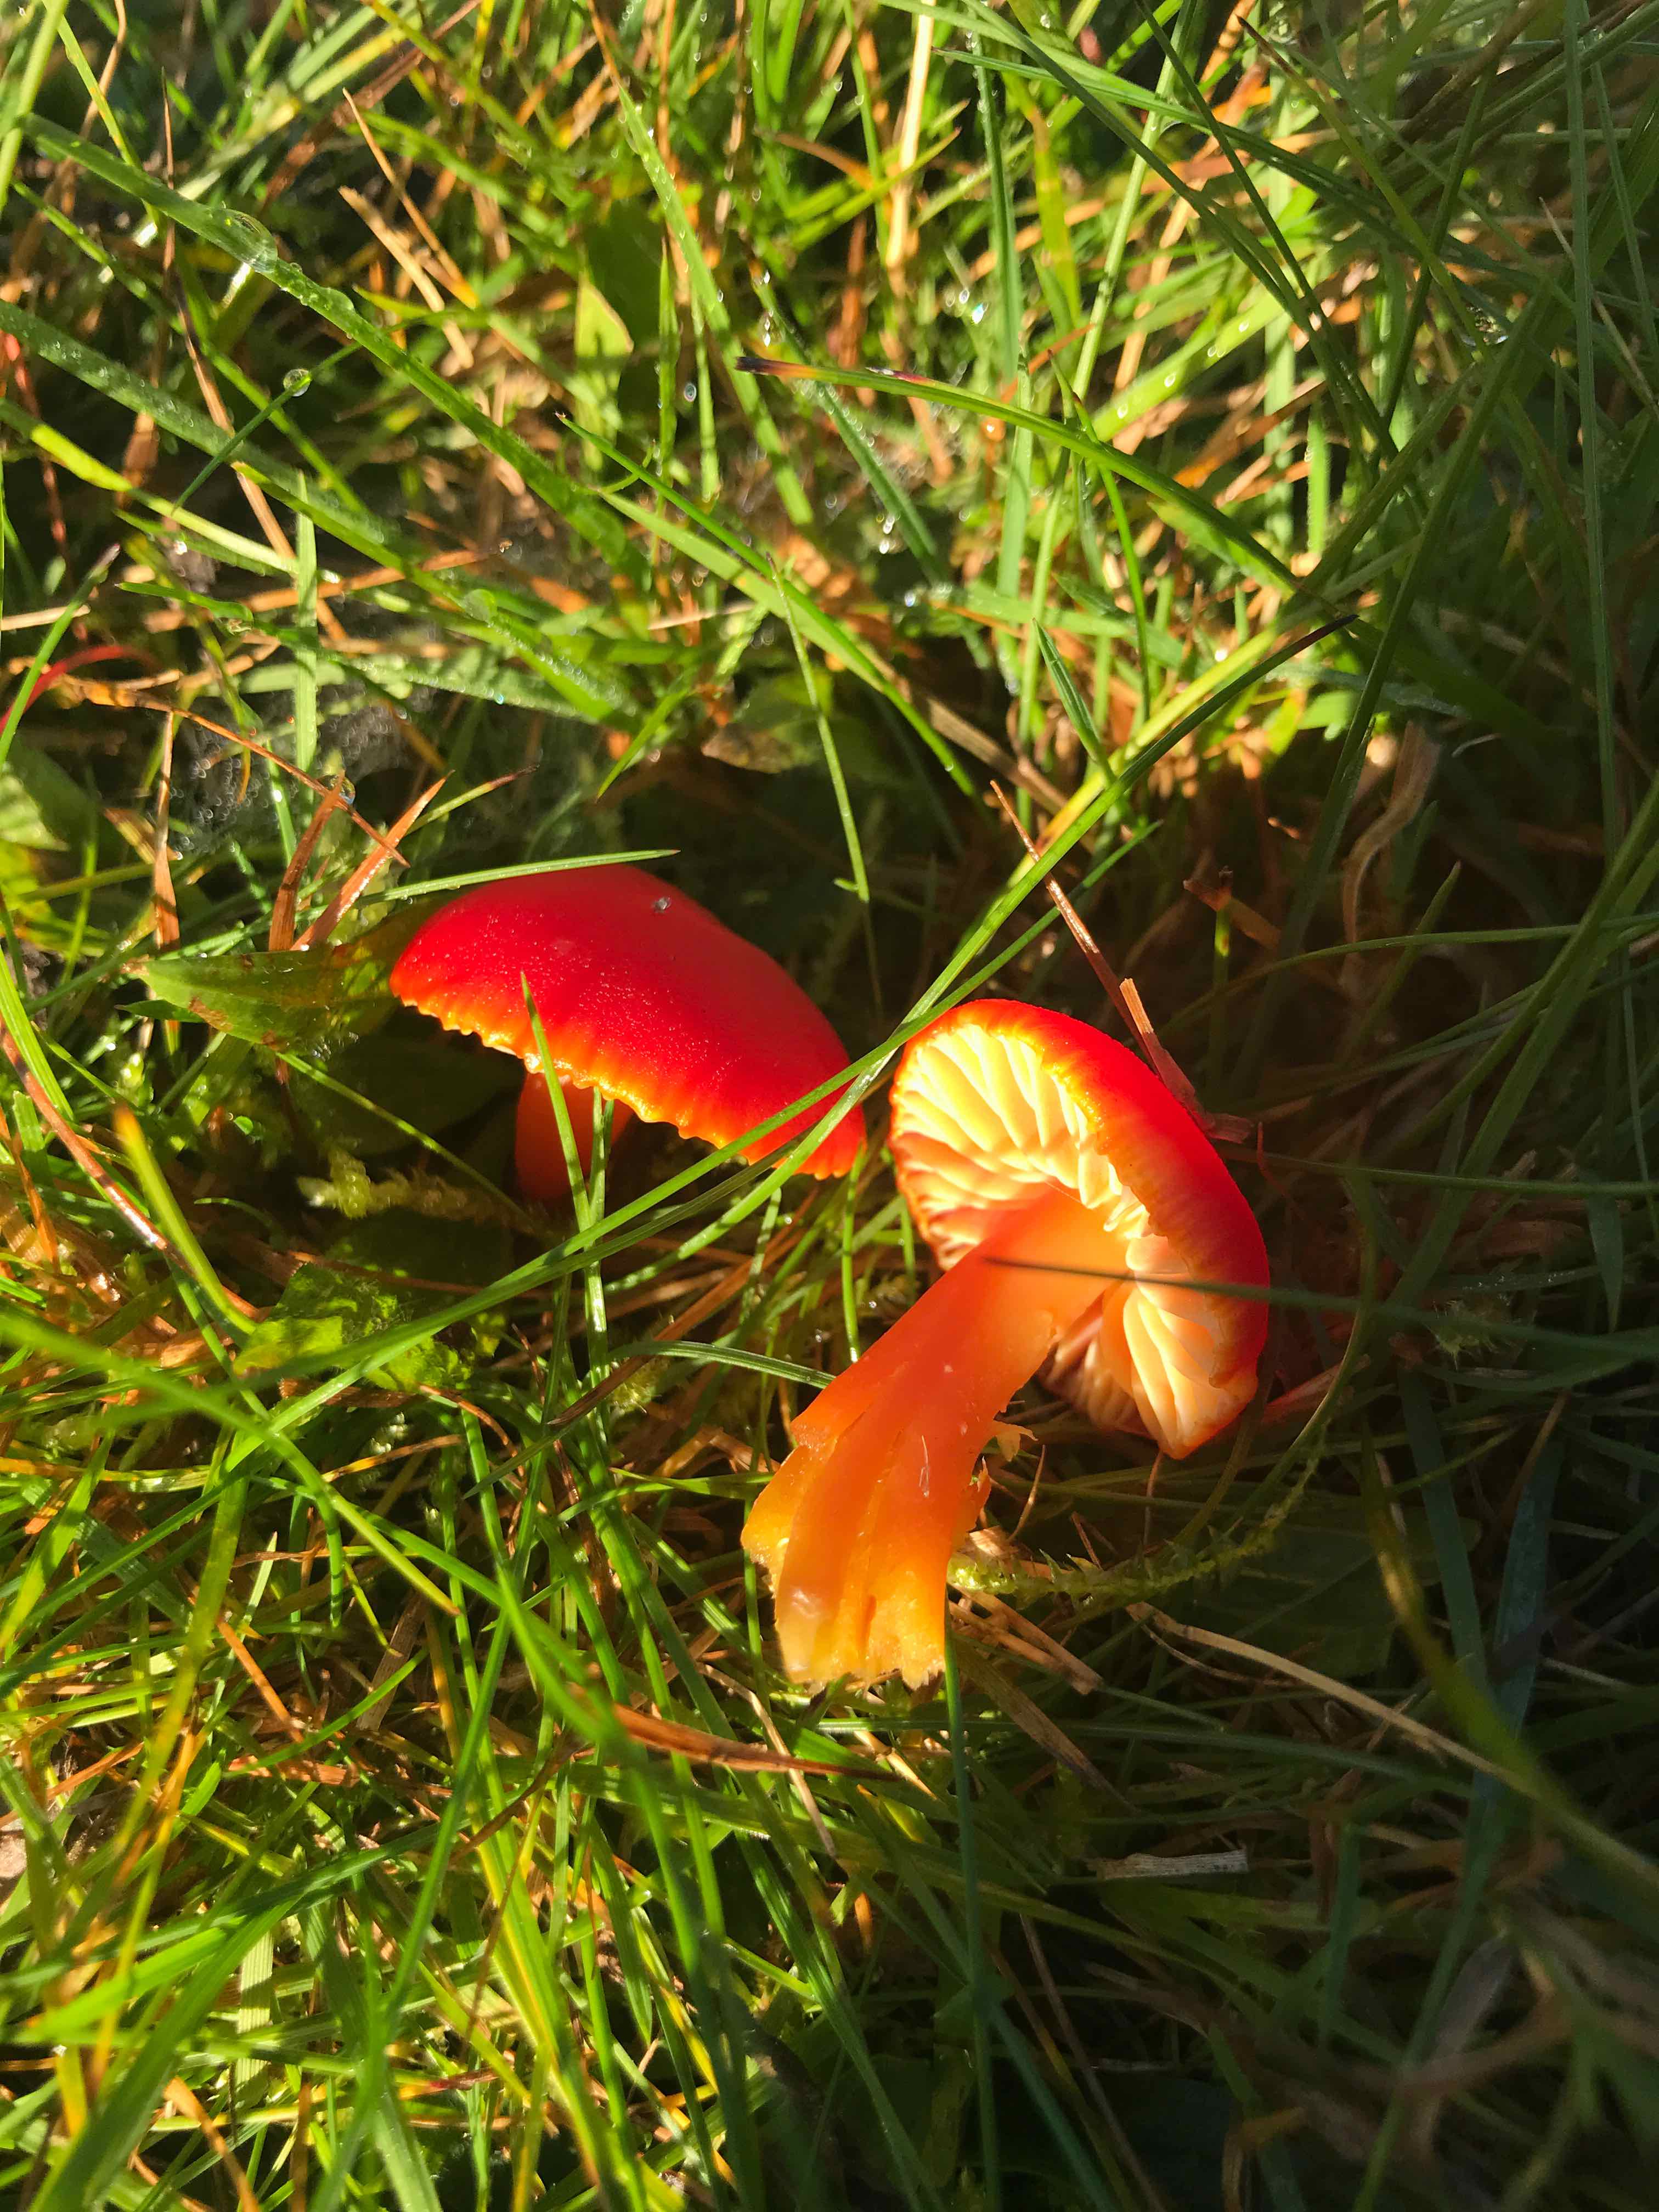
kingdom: Fungi
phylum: Basidiomycota
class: Agaricomycetes
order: Agaricales
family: Hygrophoraceae
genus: Hygrocybe
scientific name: Hygrocybe coccinea
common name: cinnober-vokshat
